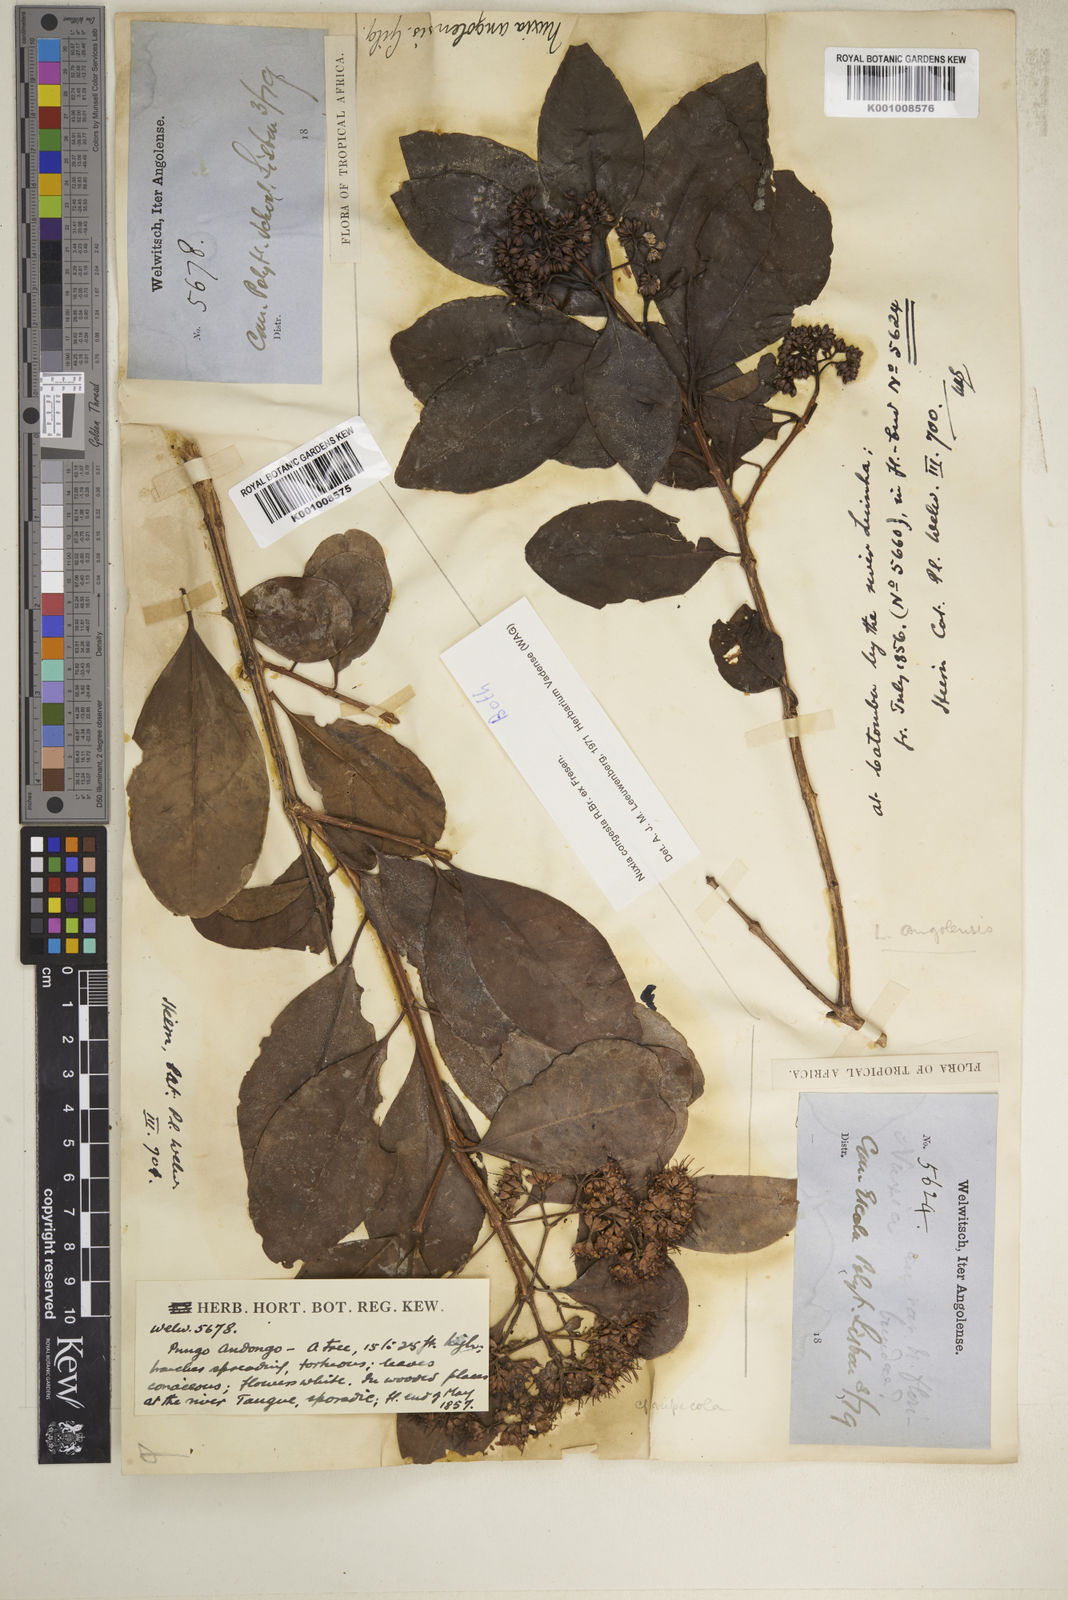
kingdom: Plantae
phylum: Tracheophyta
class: Magnoliopsida
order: Lamiales
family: Stilbaceae
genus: Nuxia
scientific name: Nuxia congesta
